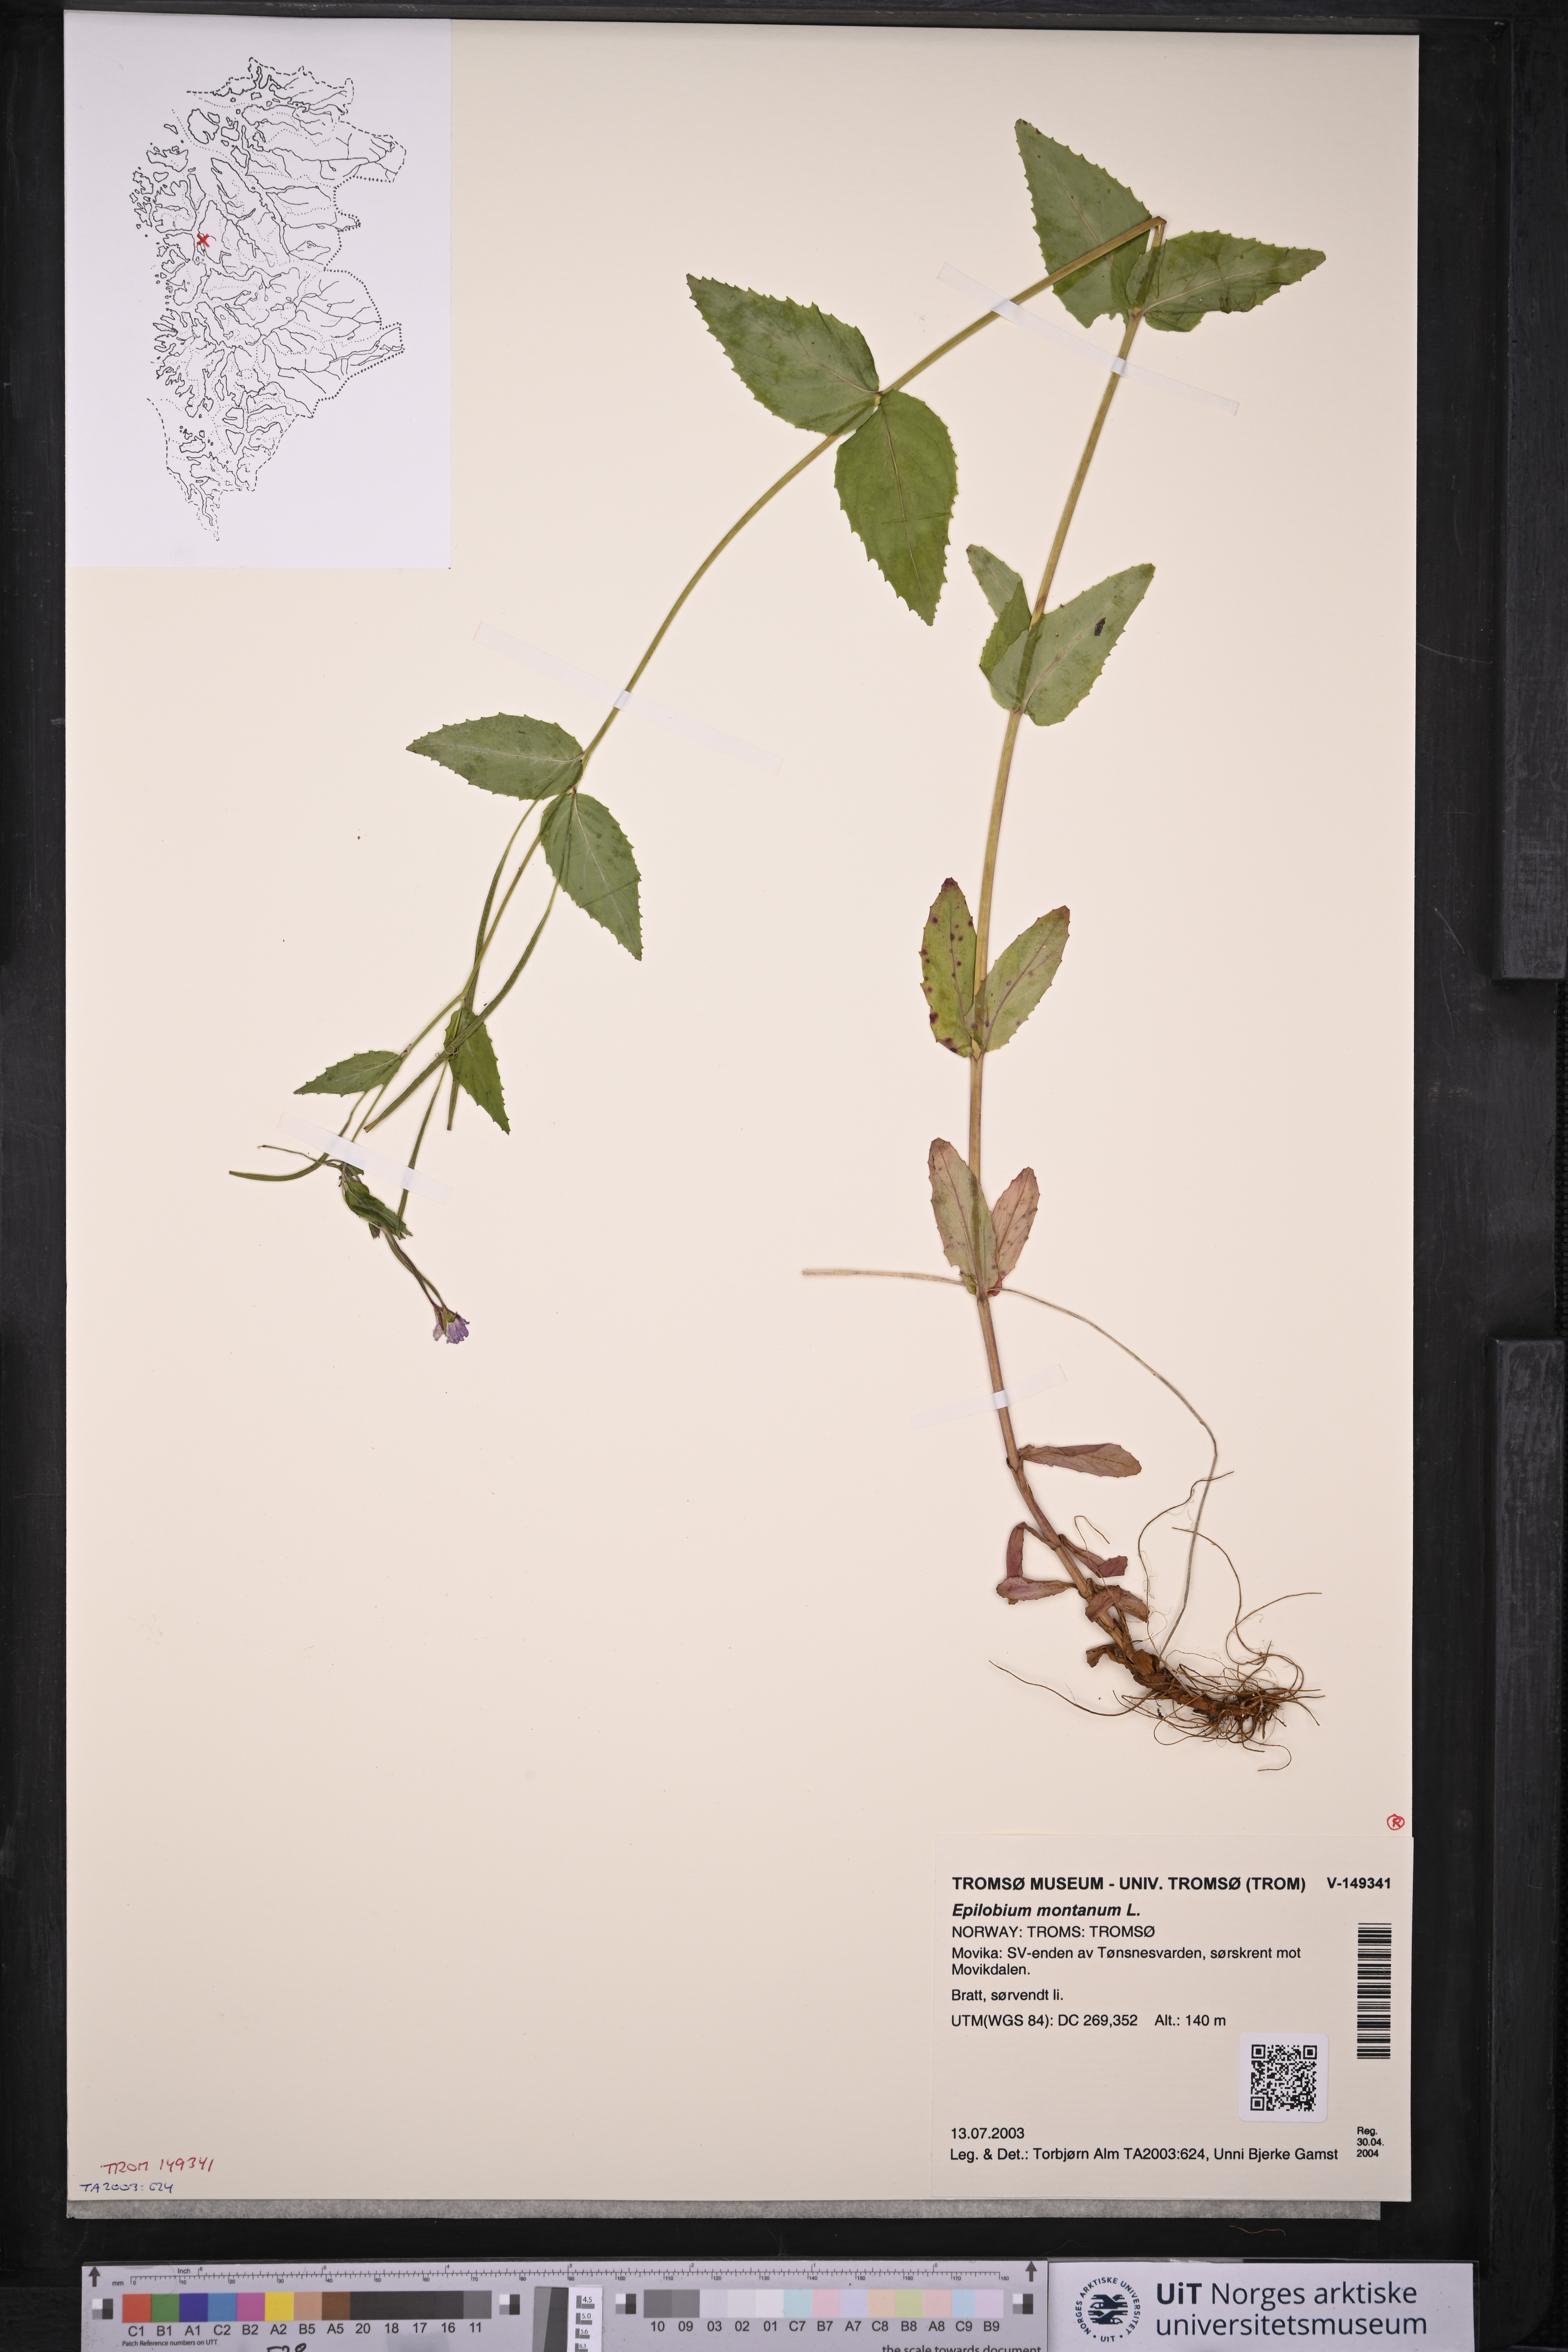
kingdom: Plantae
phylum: Tracheophyta
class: Magnoliopsida
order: Myrtales
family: Onagraceae
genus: Epilobium
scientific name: Epilobium montanum
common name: Broad-leaved willowherb
